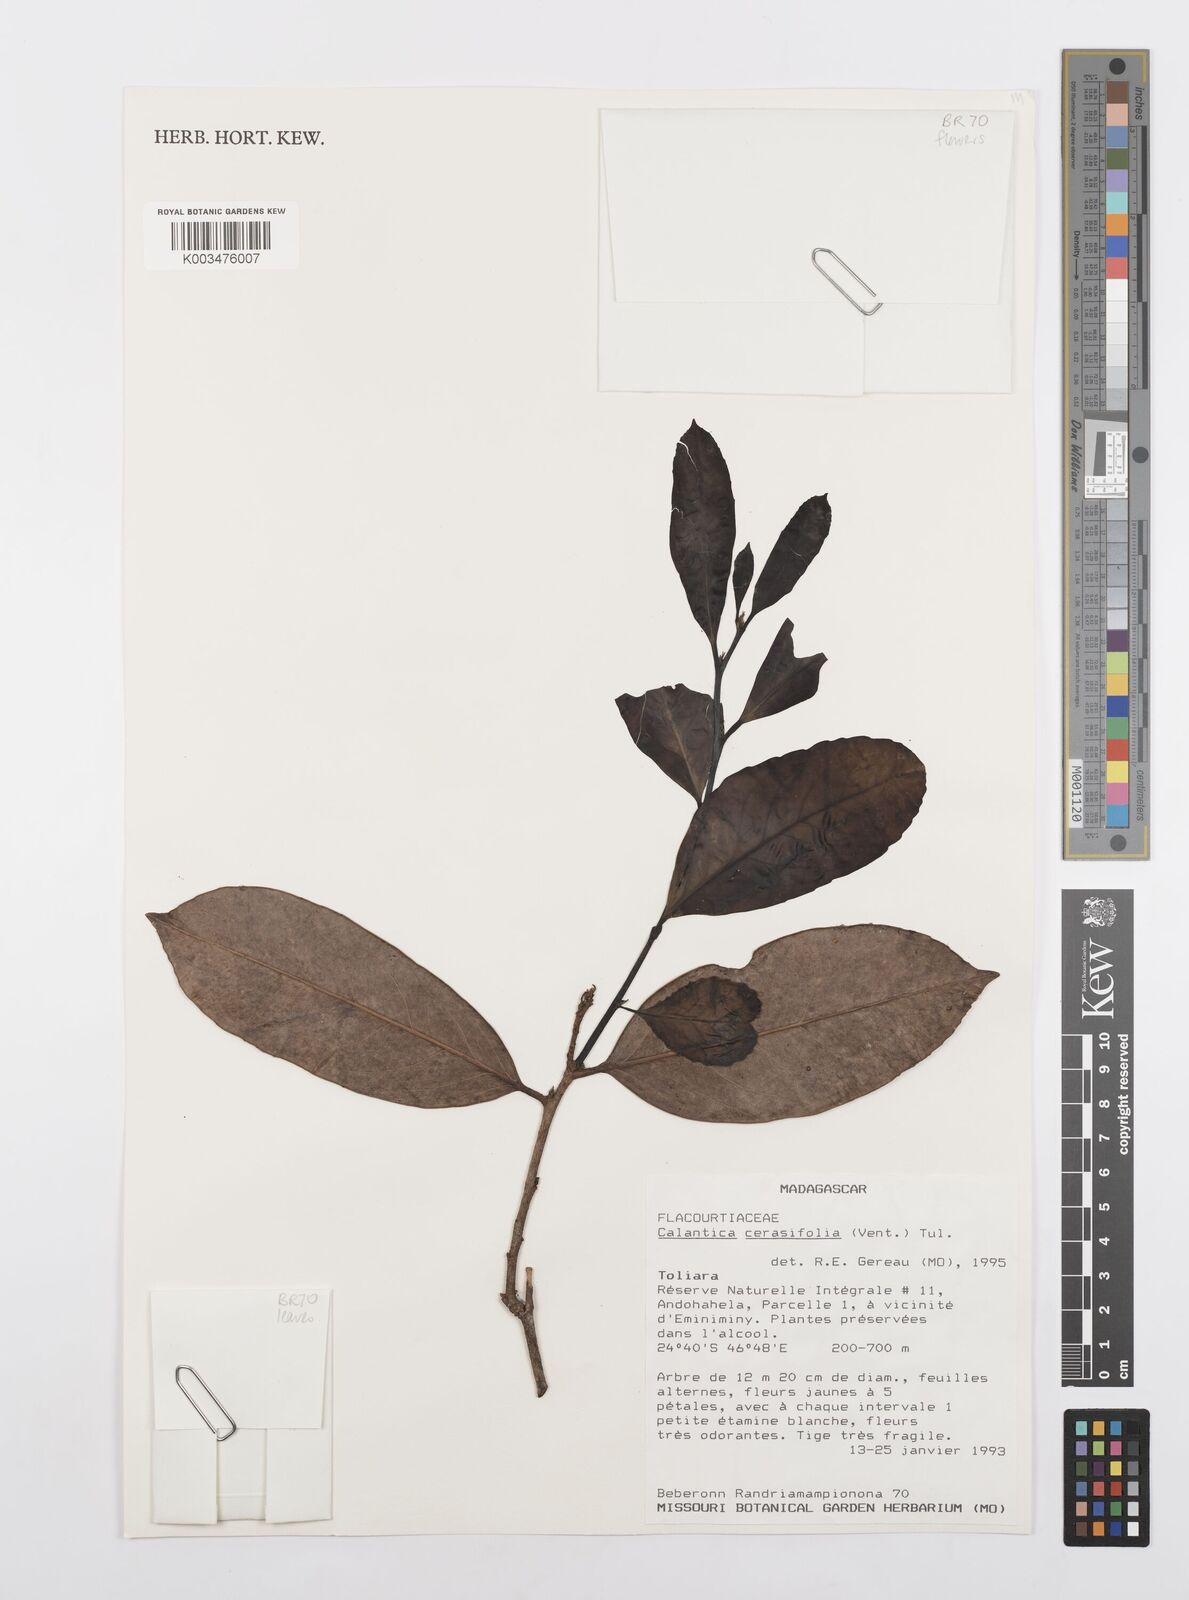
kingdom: Plantae
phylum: Tracheophyta
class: Magnoliopsida
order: Malpighiales
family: Salicaceae
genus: Calantica
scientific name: Calantica cerasifolia
